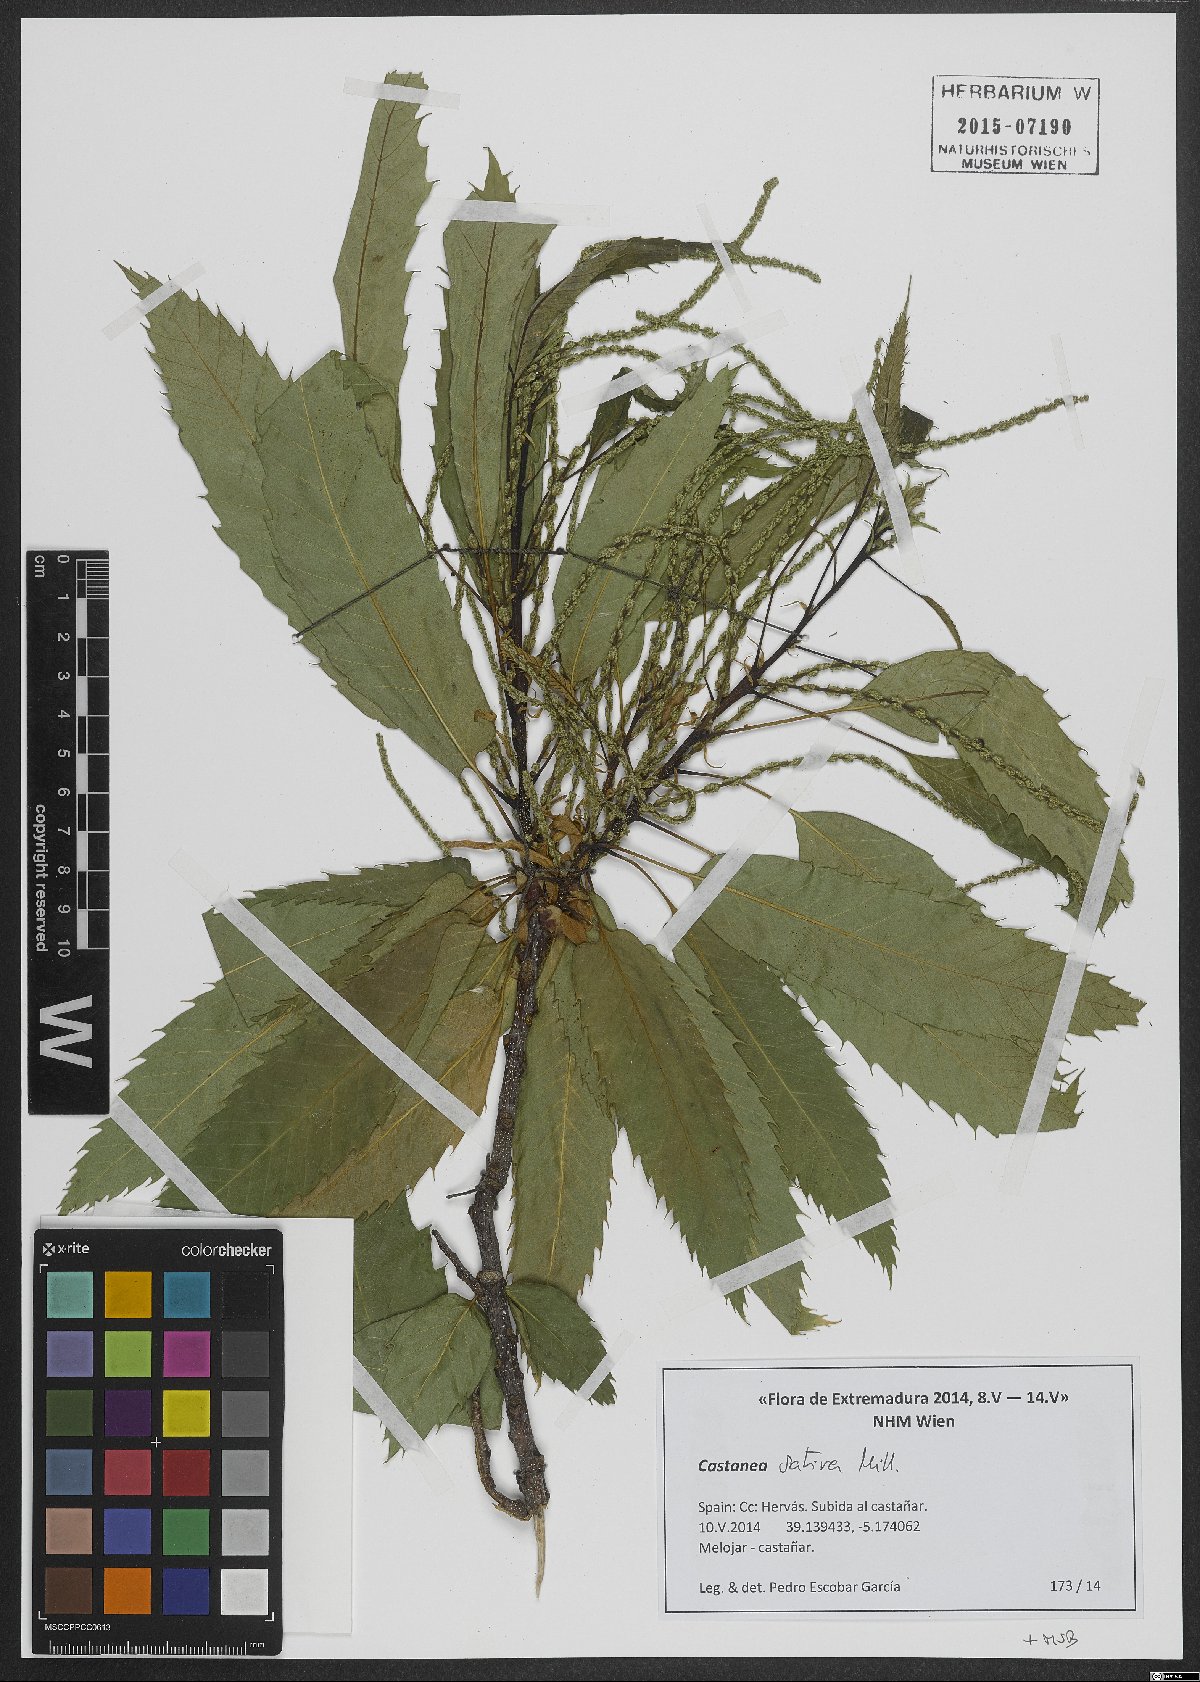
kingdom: Plantae
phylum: Tracheophyta
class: Magnoliopsida
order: Fagales
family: Fagaceae
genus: Castanea
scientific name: Castanea sativa
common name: Sweet chestnut
